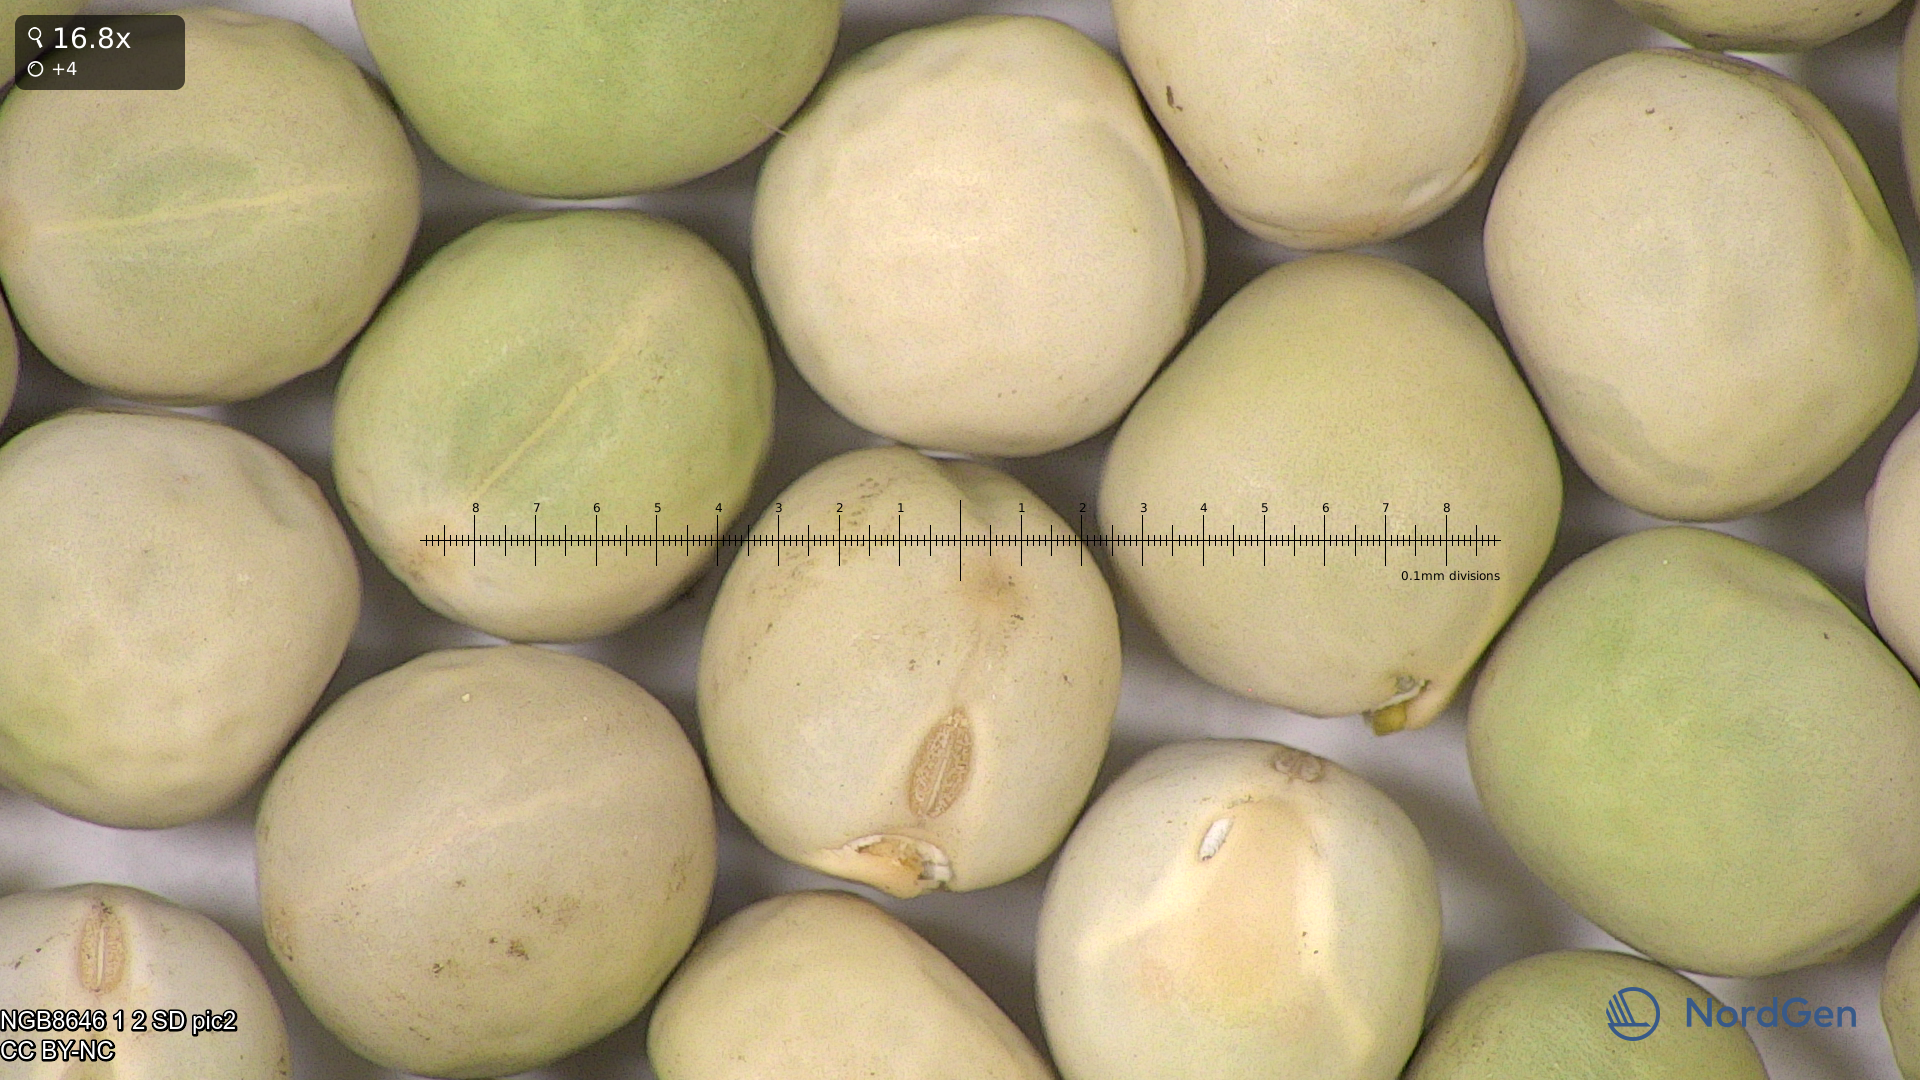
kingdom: Plantae
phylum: Tracheophyta
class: Magnoliopsida
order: Fabales
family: Fabaceae
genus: Lathyrus
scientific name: Lathyrus oleraceus
